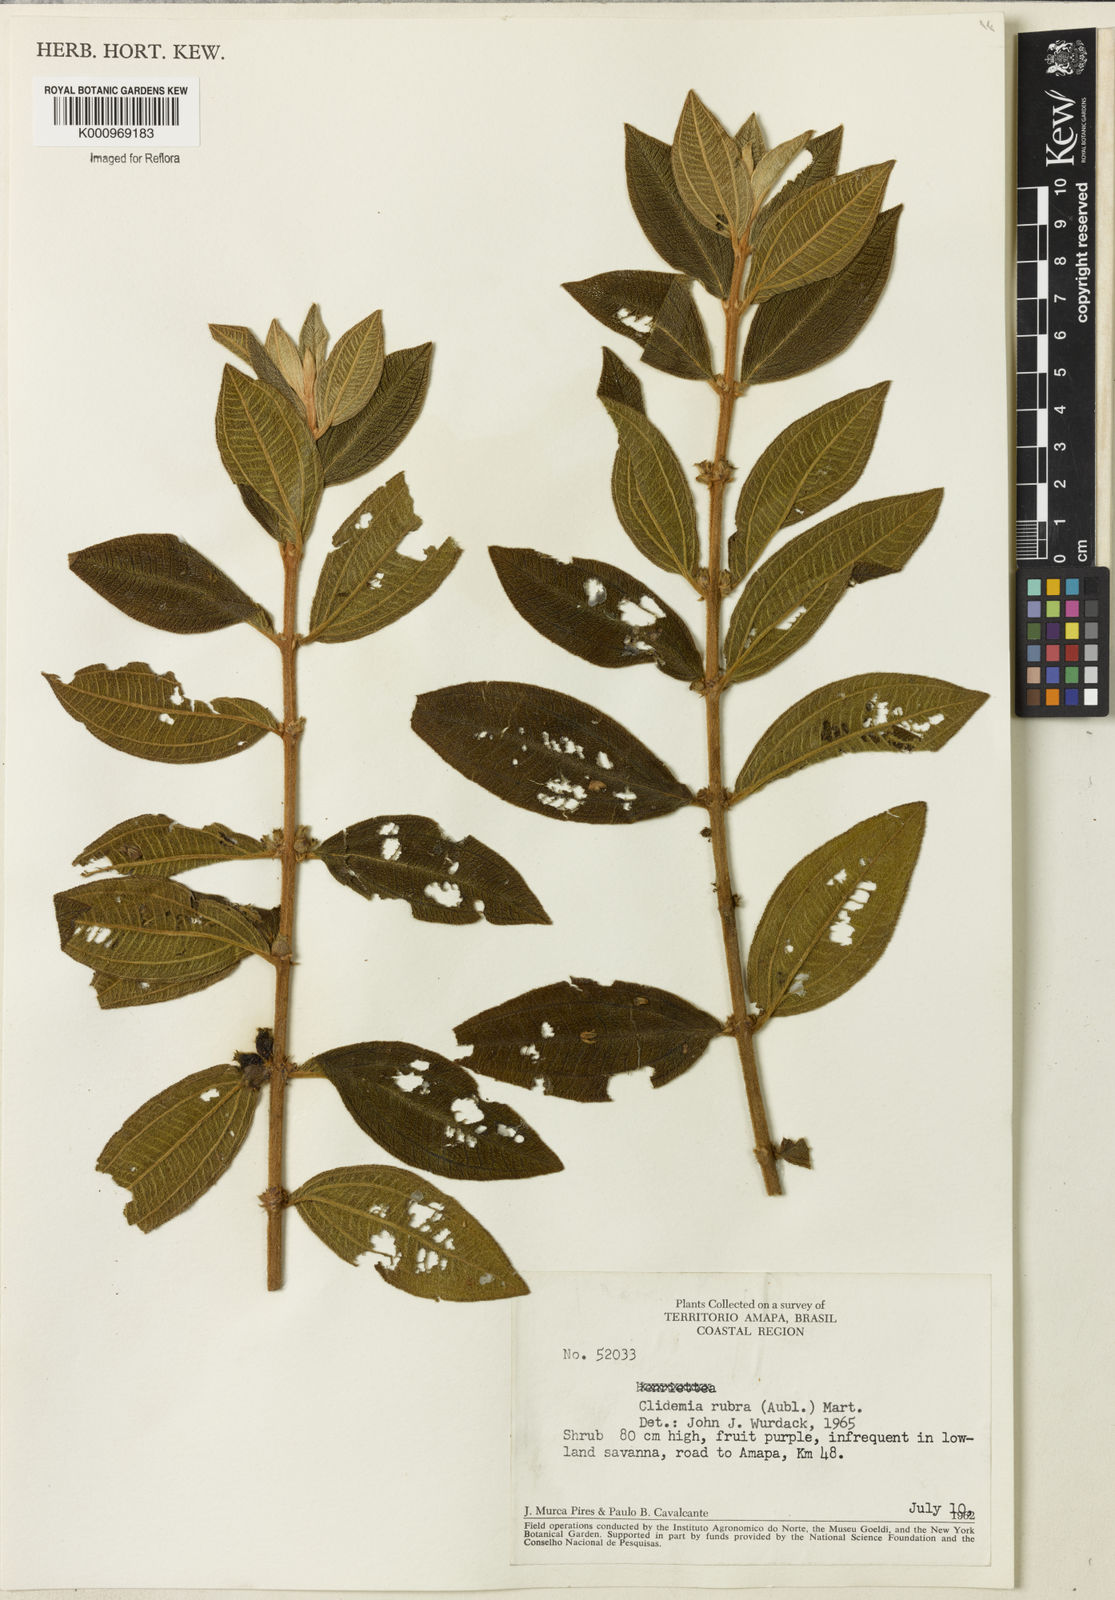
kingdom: Plantae
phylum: Tracheophyta
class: Magnoliopsida
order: Myrtales
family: Melastomataceae
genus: Miconia
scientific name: Miconia rubra
